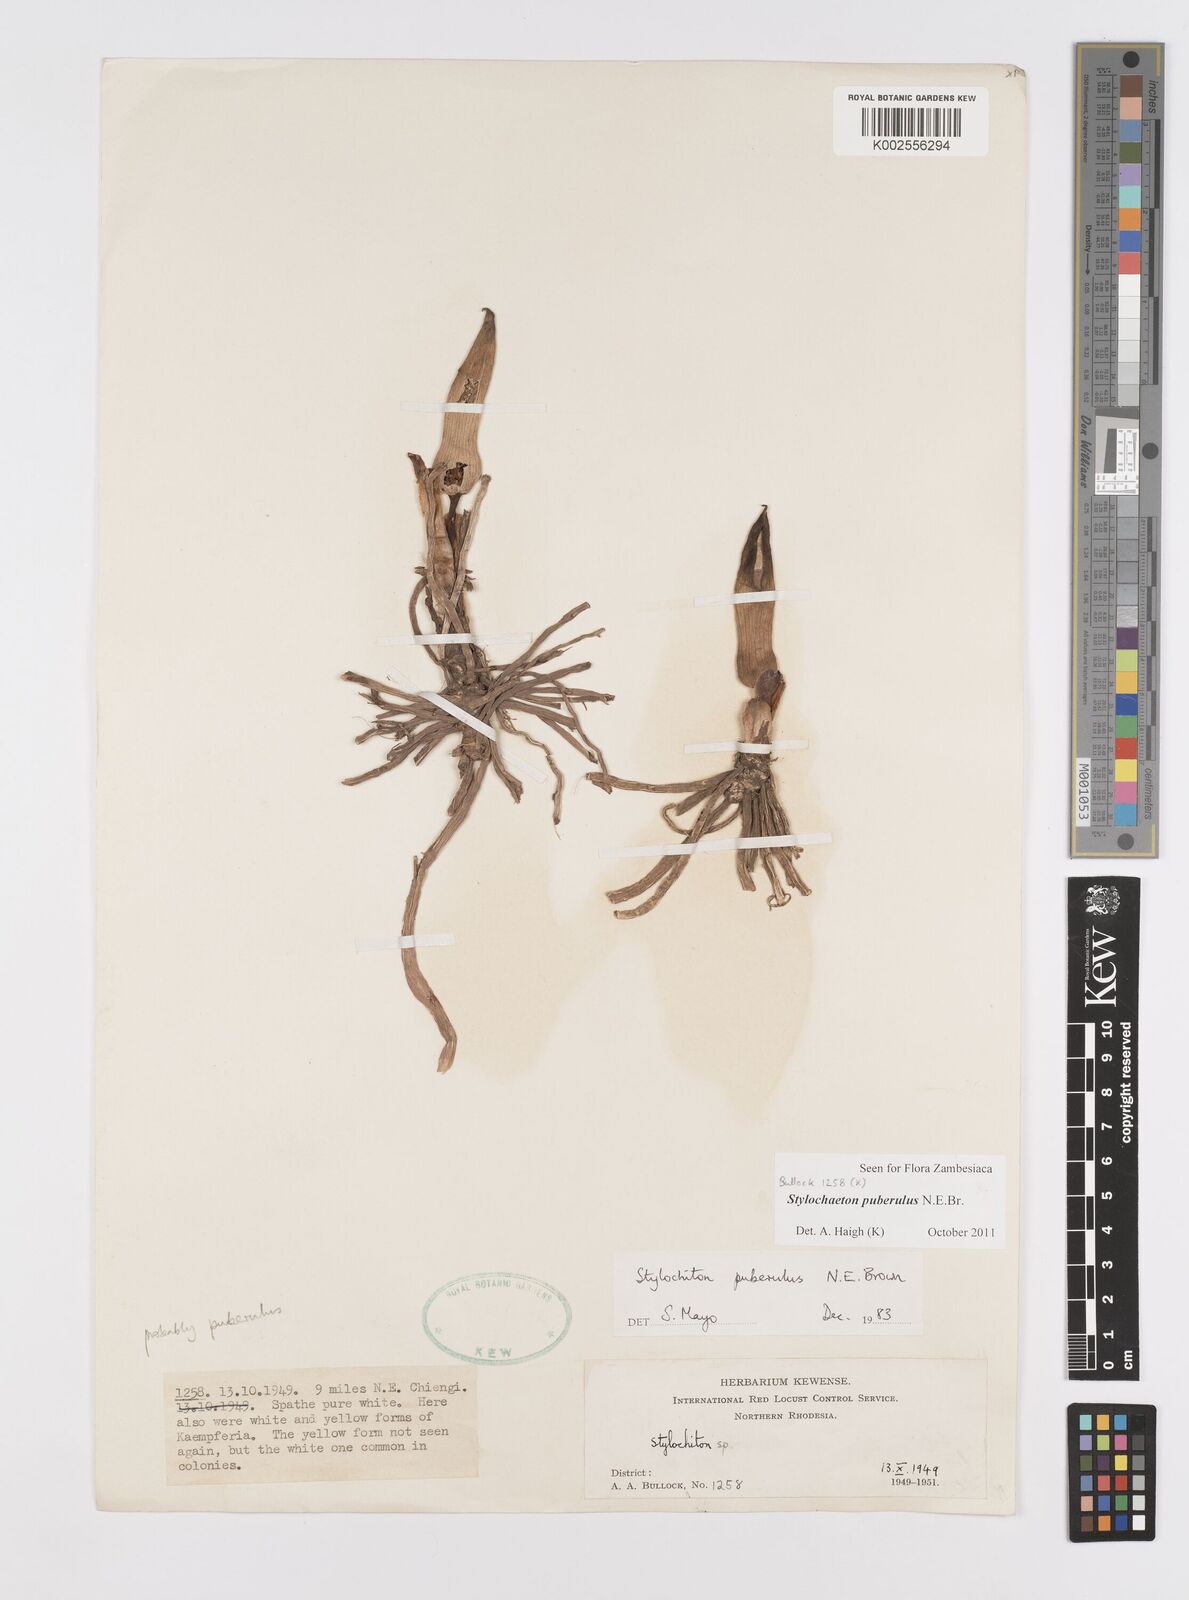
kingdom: Plantae
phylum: Tracheophyta
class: Liliopsida
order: Alismatales
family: Araceae
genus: Stylochaeton
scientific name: Stylochaeton puberulum
